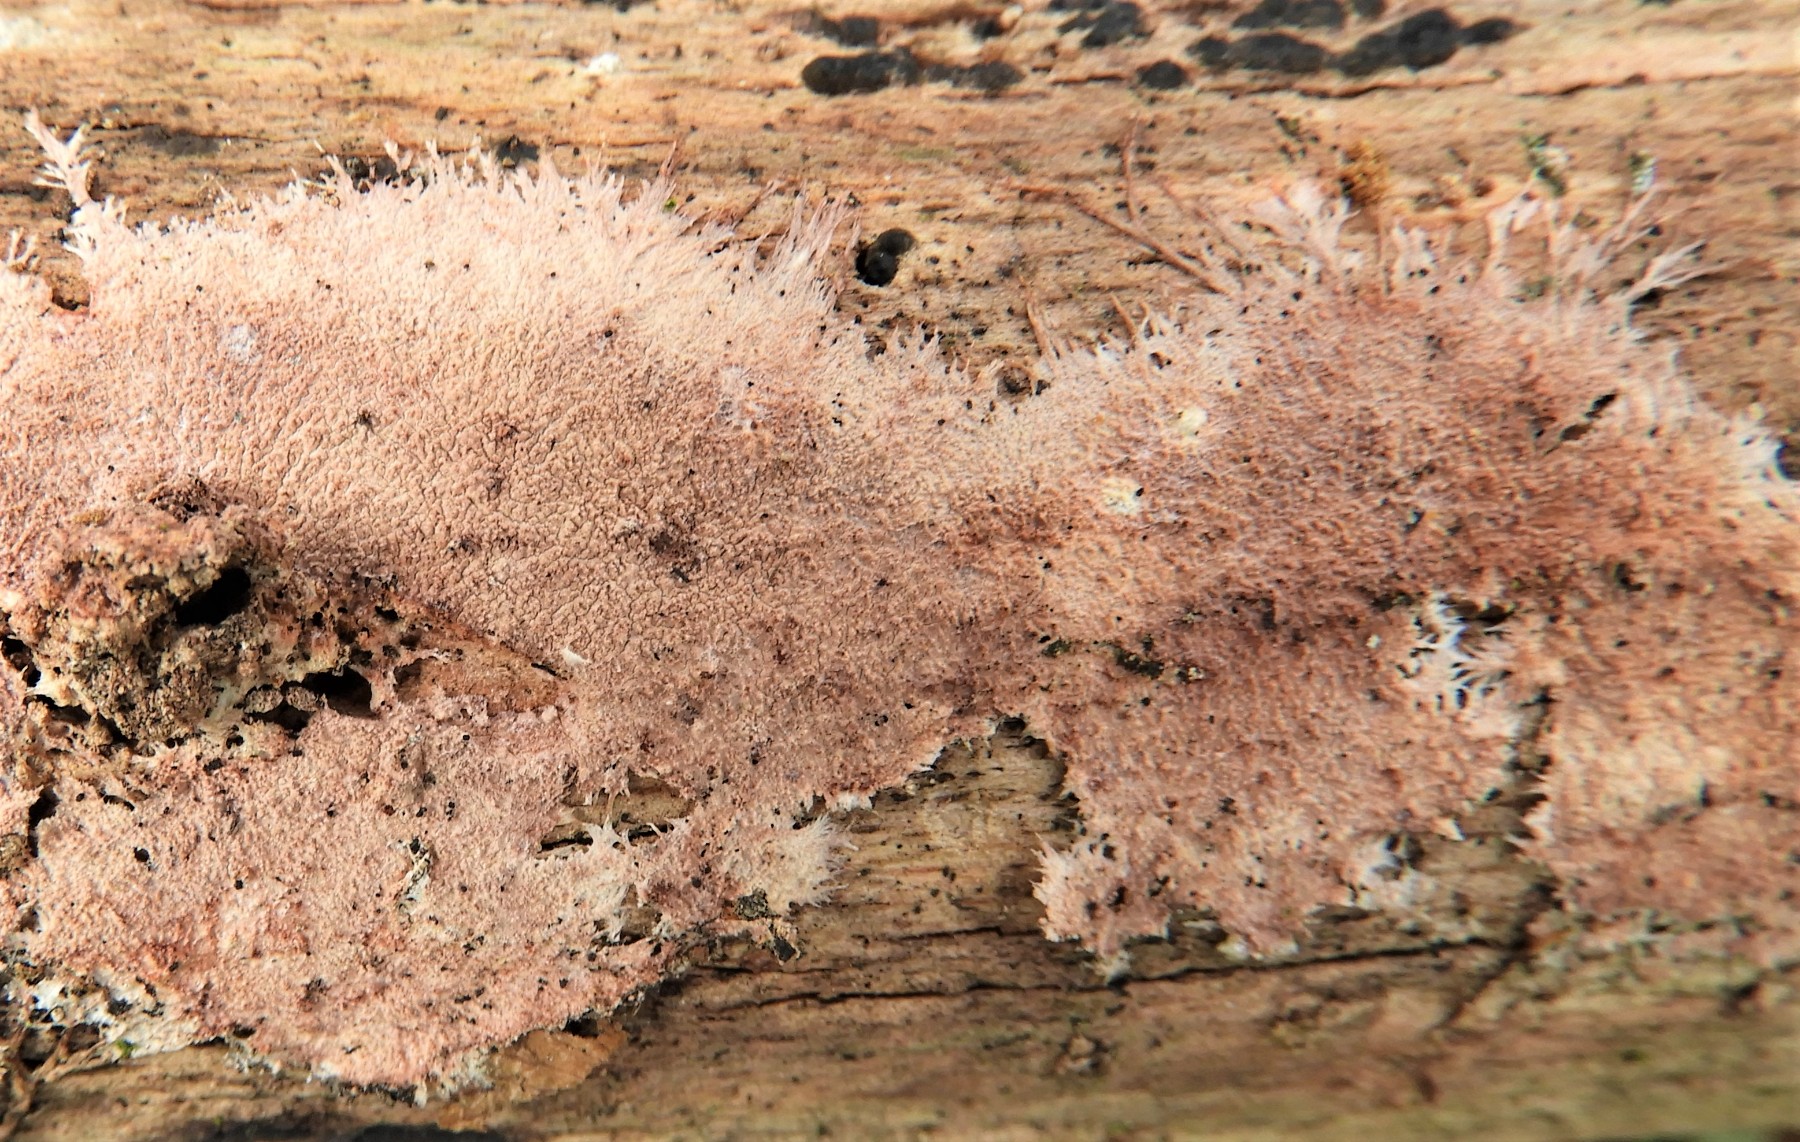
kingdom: Fungi
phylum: Basidiomycota
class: Agaricomycetes
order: Polyporales
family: Steccherinaceae
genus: Steccherinum
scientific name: Steccherinum fimbriatum
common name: trådet skønpig
